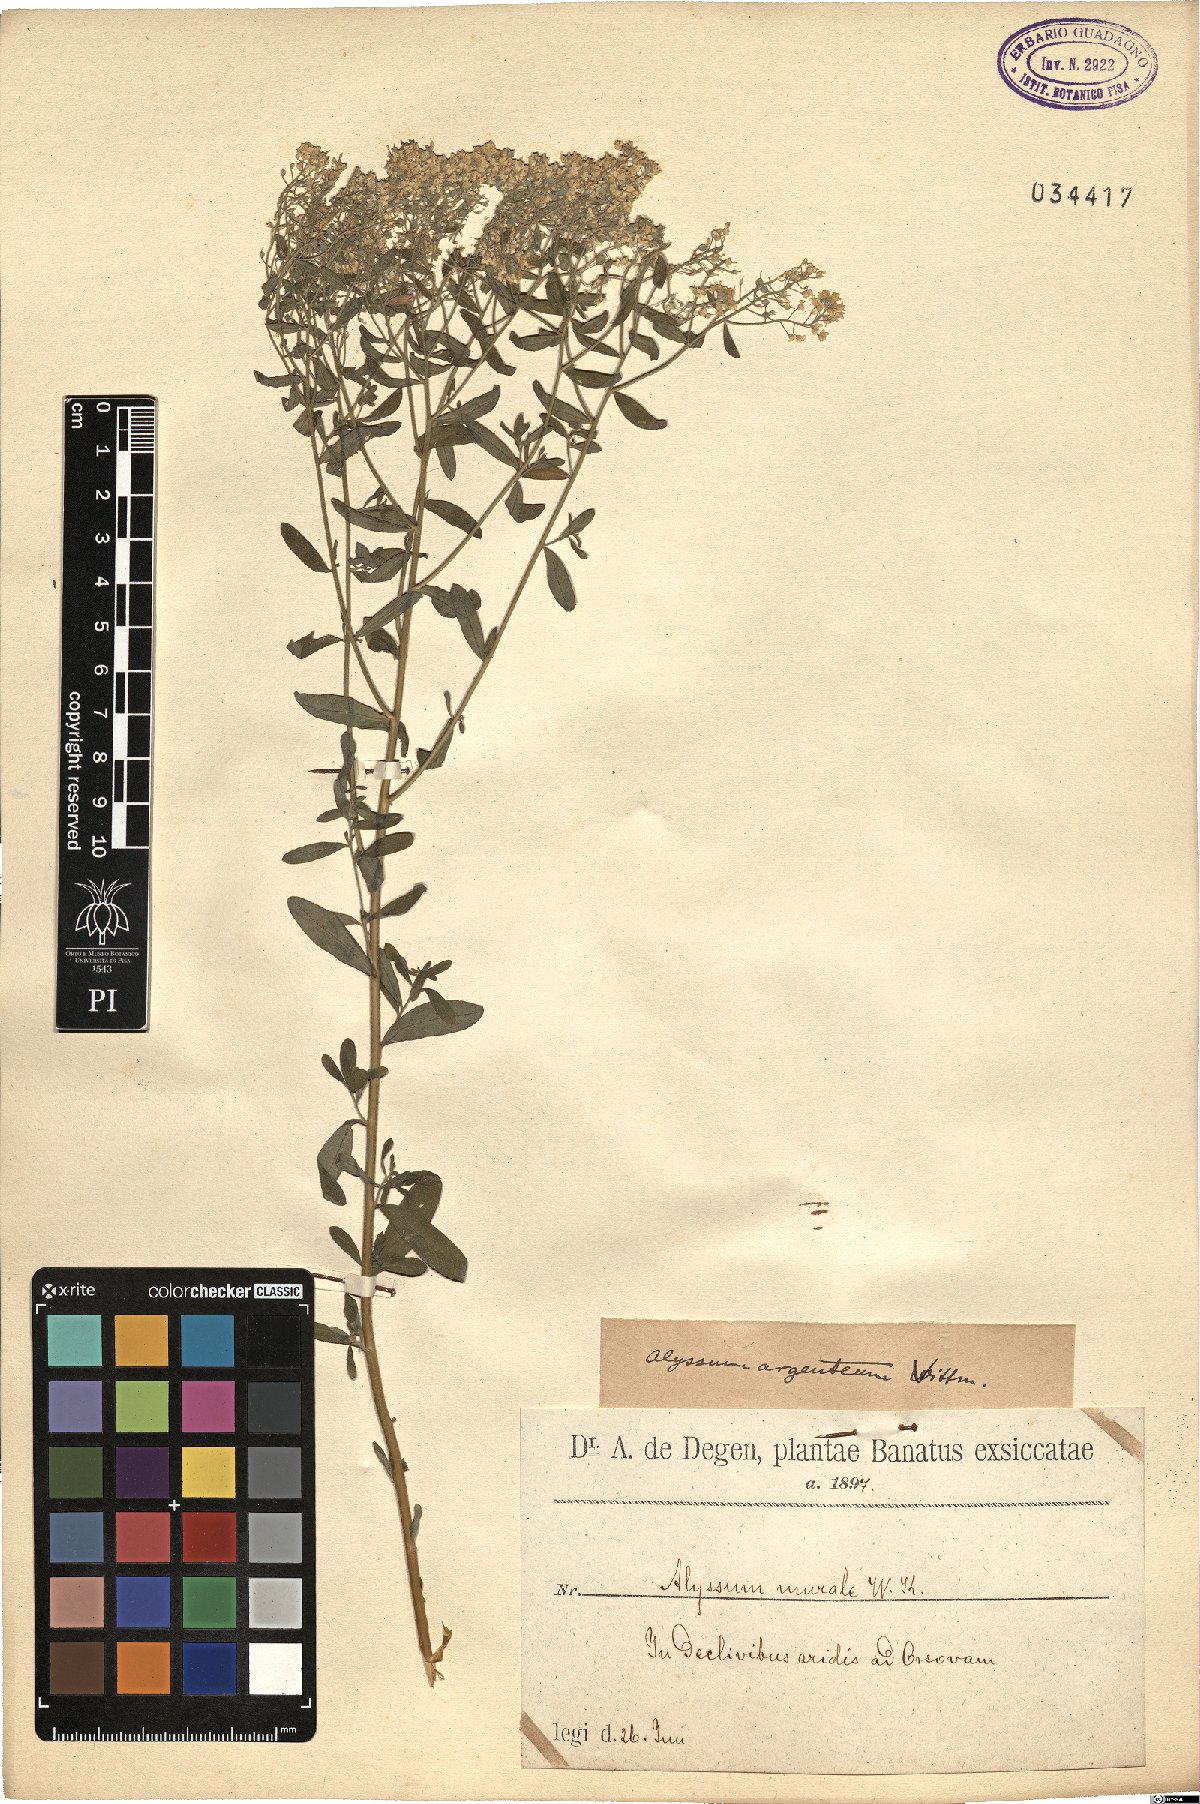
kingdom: Plantae
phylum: Tracheophyta
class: Magnoliopsida
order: Brassicales
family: Brassicaceae
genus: Odontarrhena
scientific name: Odontarrhena argentea
